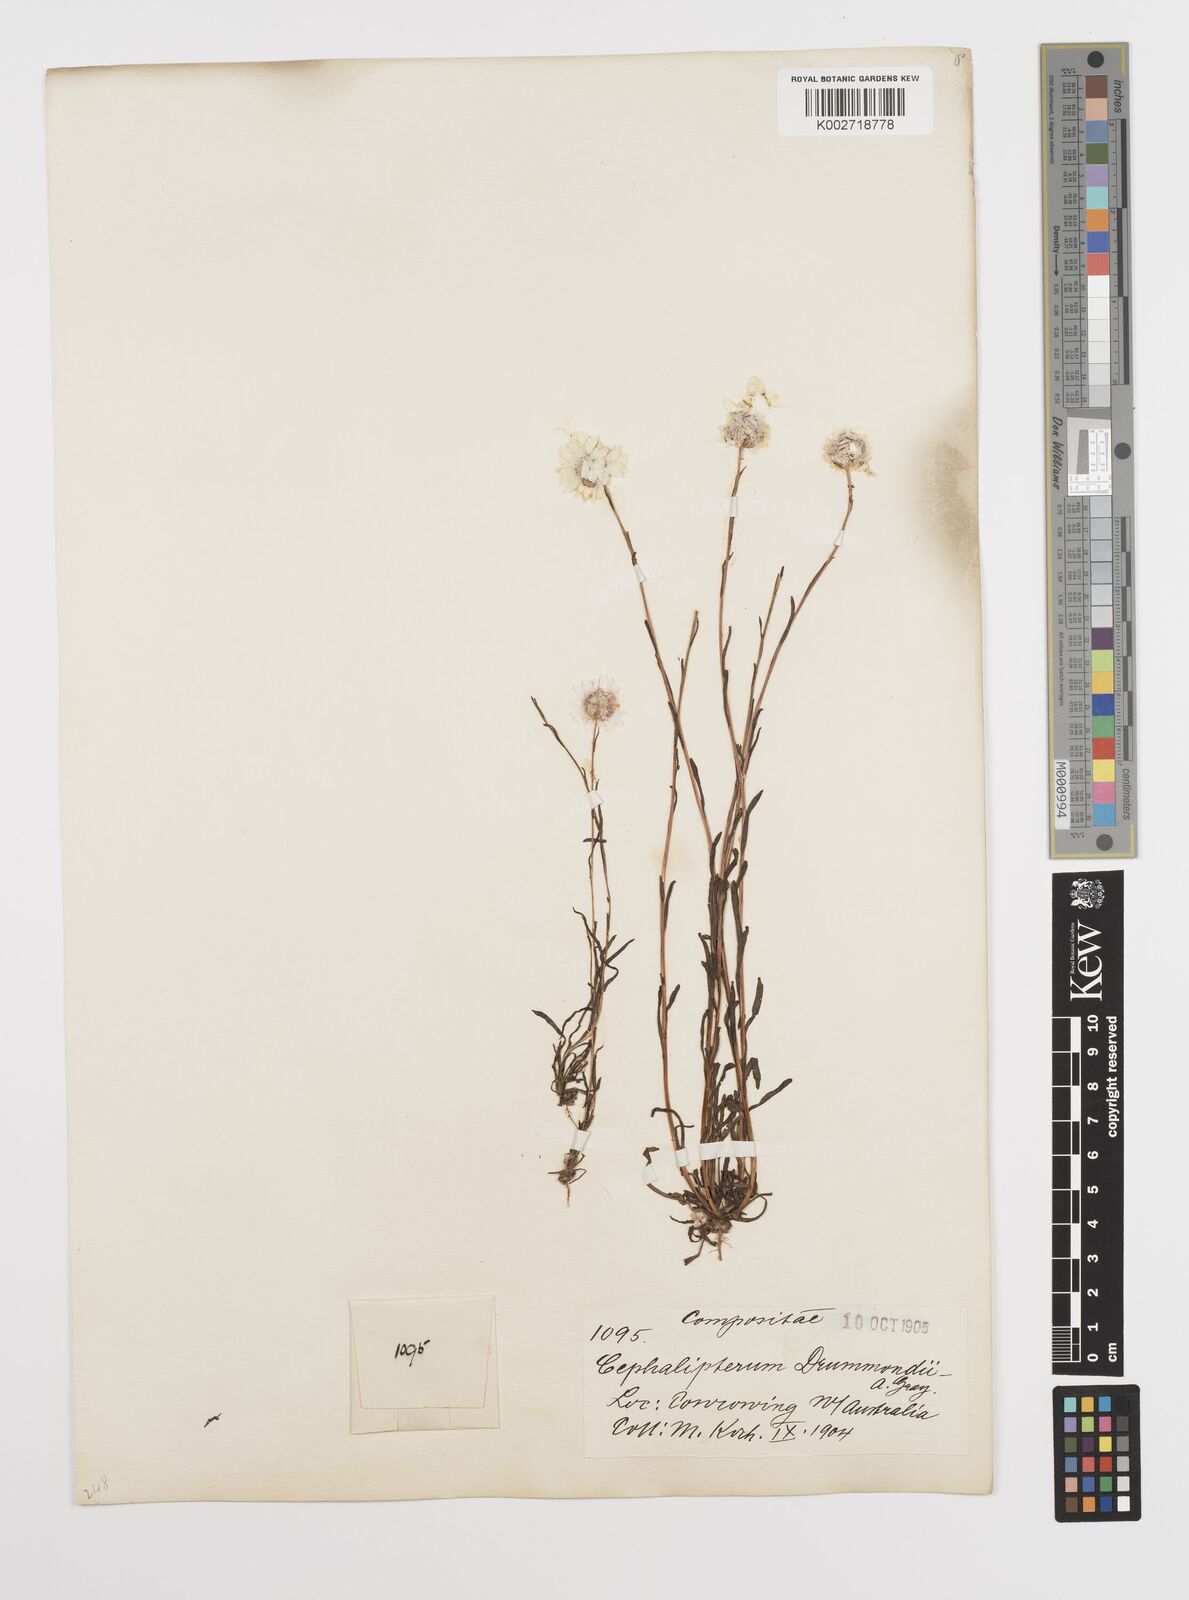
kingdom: Plantae
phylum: Tracheophyta
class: Magnoliopsida
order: Asterales
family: Asteraceae
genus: Cephalipterum
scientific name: Cephalipterum drummondii
